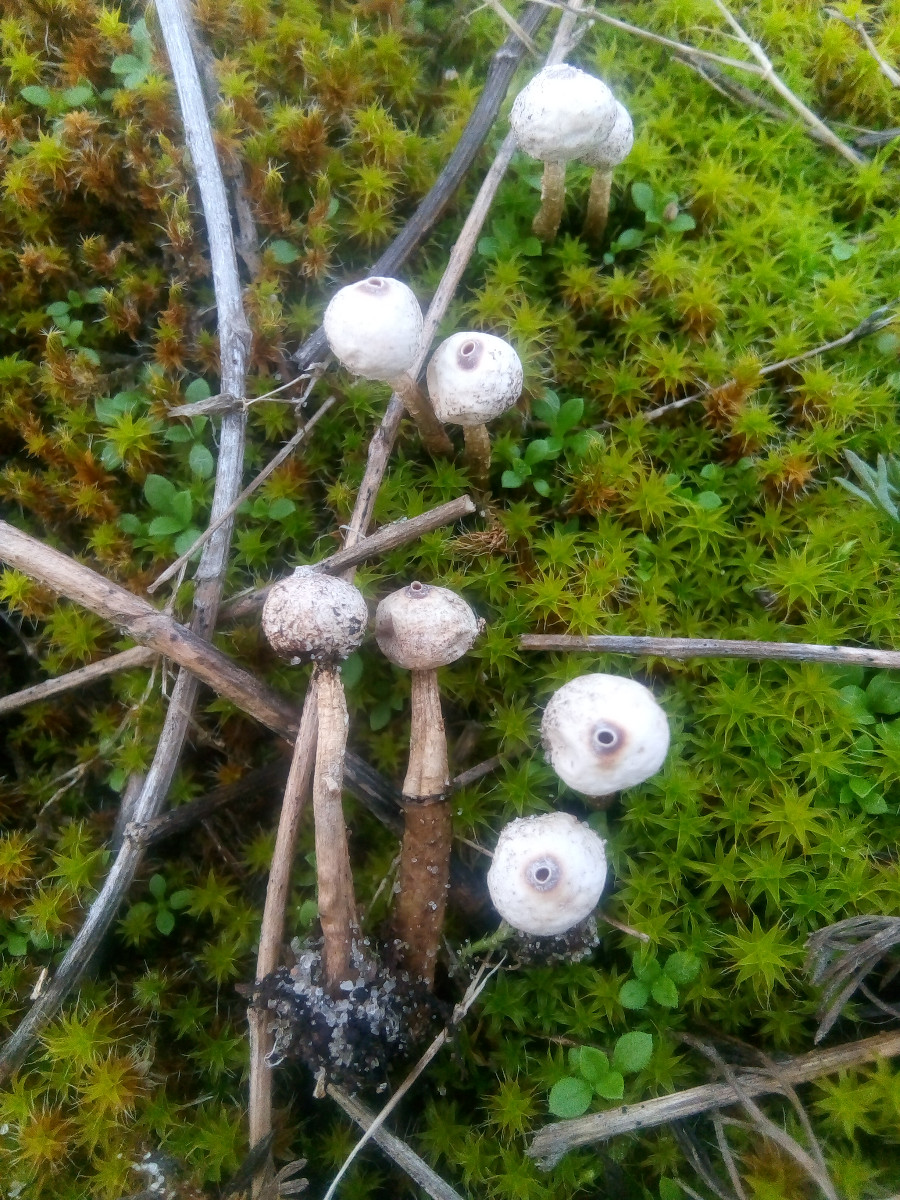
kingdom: Fungi
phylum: Basidiomycota
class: Agaricomycetes
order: Agaricales
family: Agaricaceae
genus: Tulostoma
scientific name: Tulostoma brumale
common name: vinter-stilkbovist
